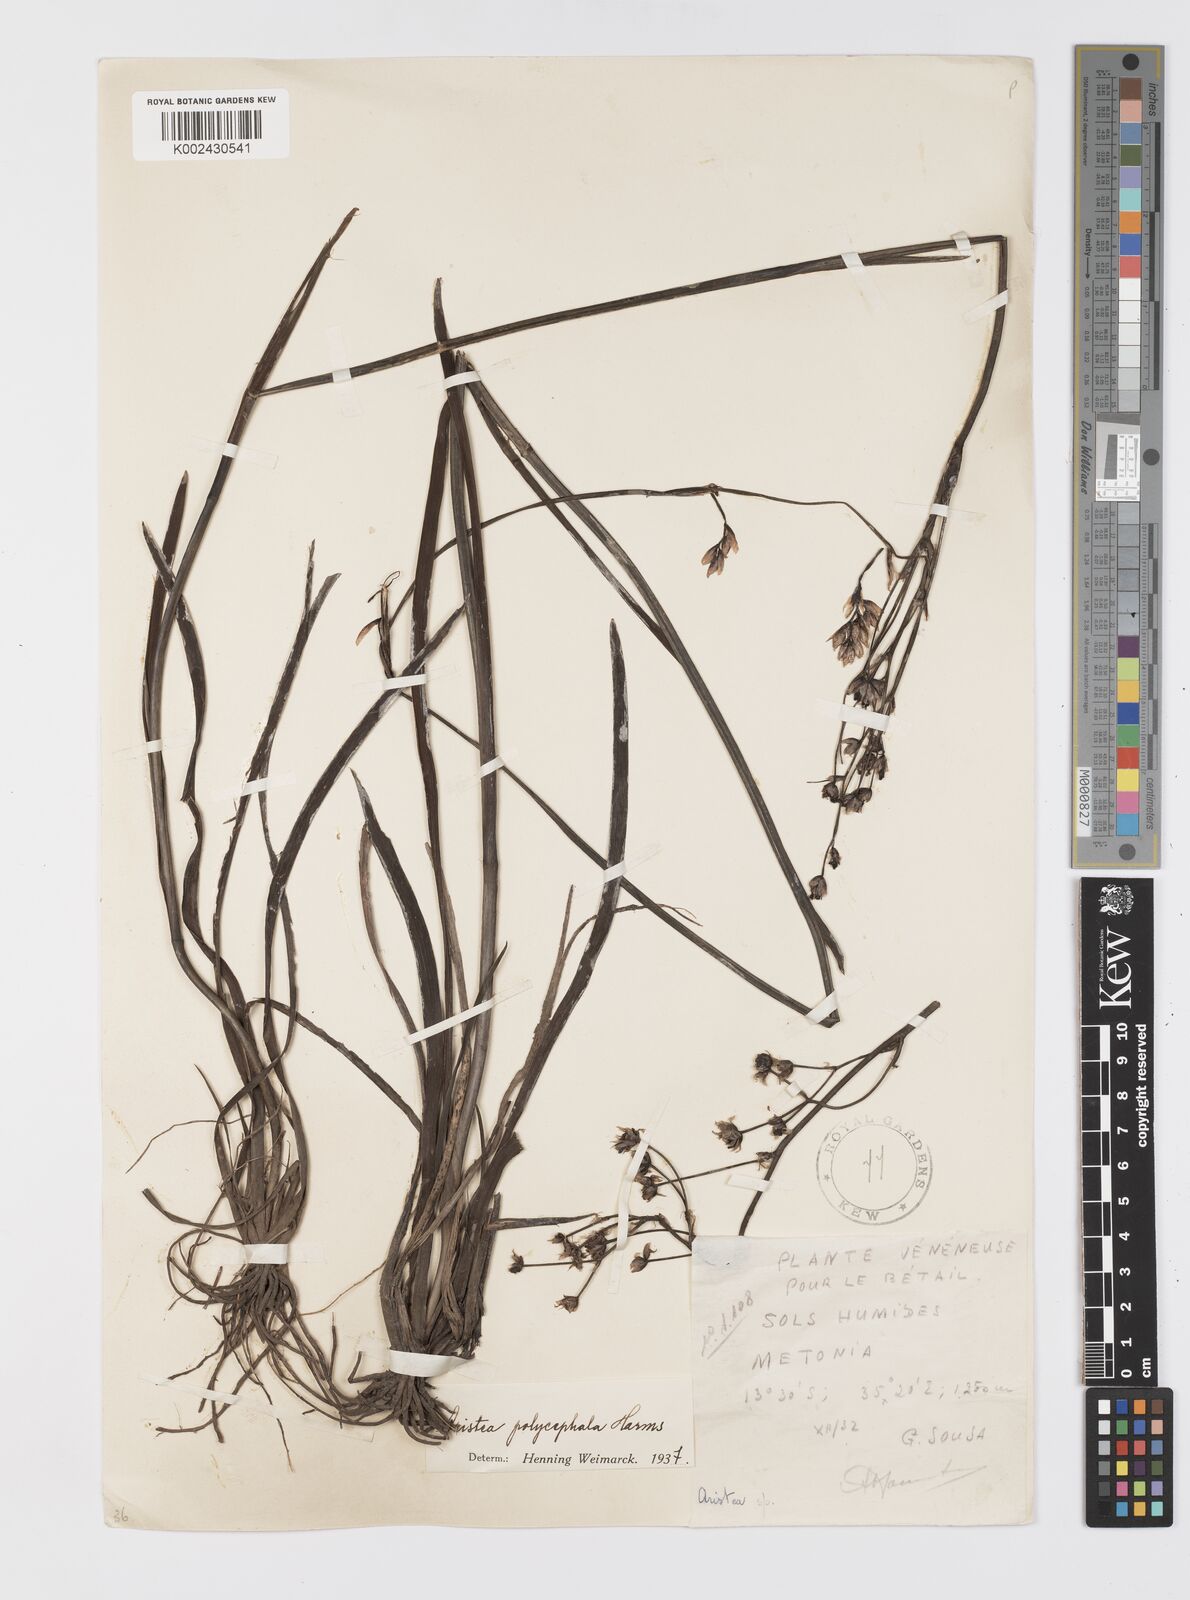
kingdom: Plantae
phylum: Tracheophyta
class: Liliopsida
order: Asparagales
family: Iridaceae
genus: Aristea
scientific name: Aristea polycephala
